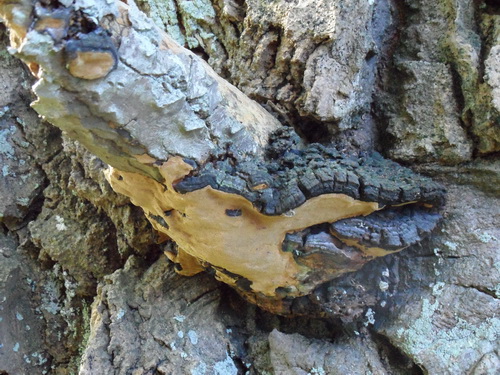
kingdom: Fungi
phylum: Basidiomycota
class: Agaricomycetes
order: Hymenochaetales
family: Hymenochaetaceae
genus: Phellinus
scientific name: Phellinus tremulae
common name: aspe-ildporesvamp
